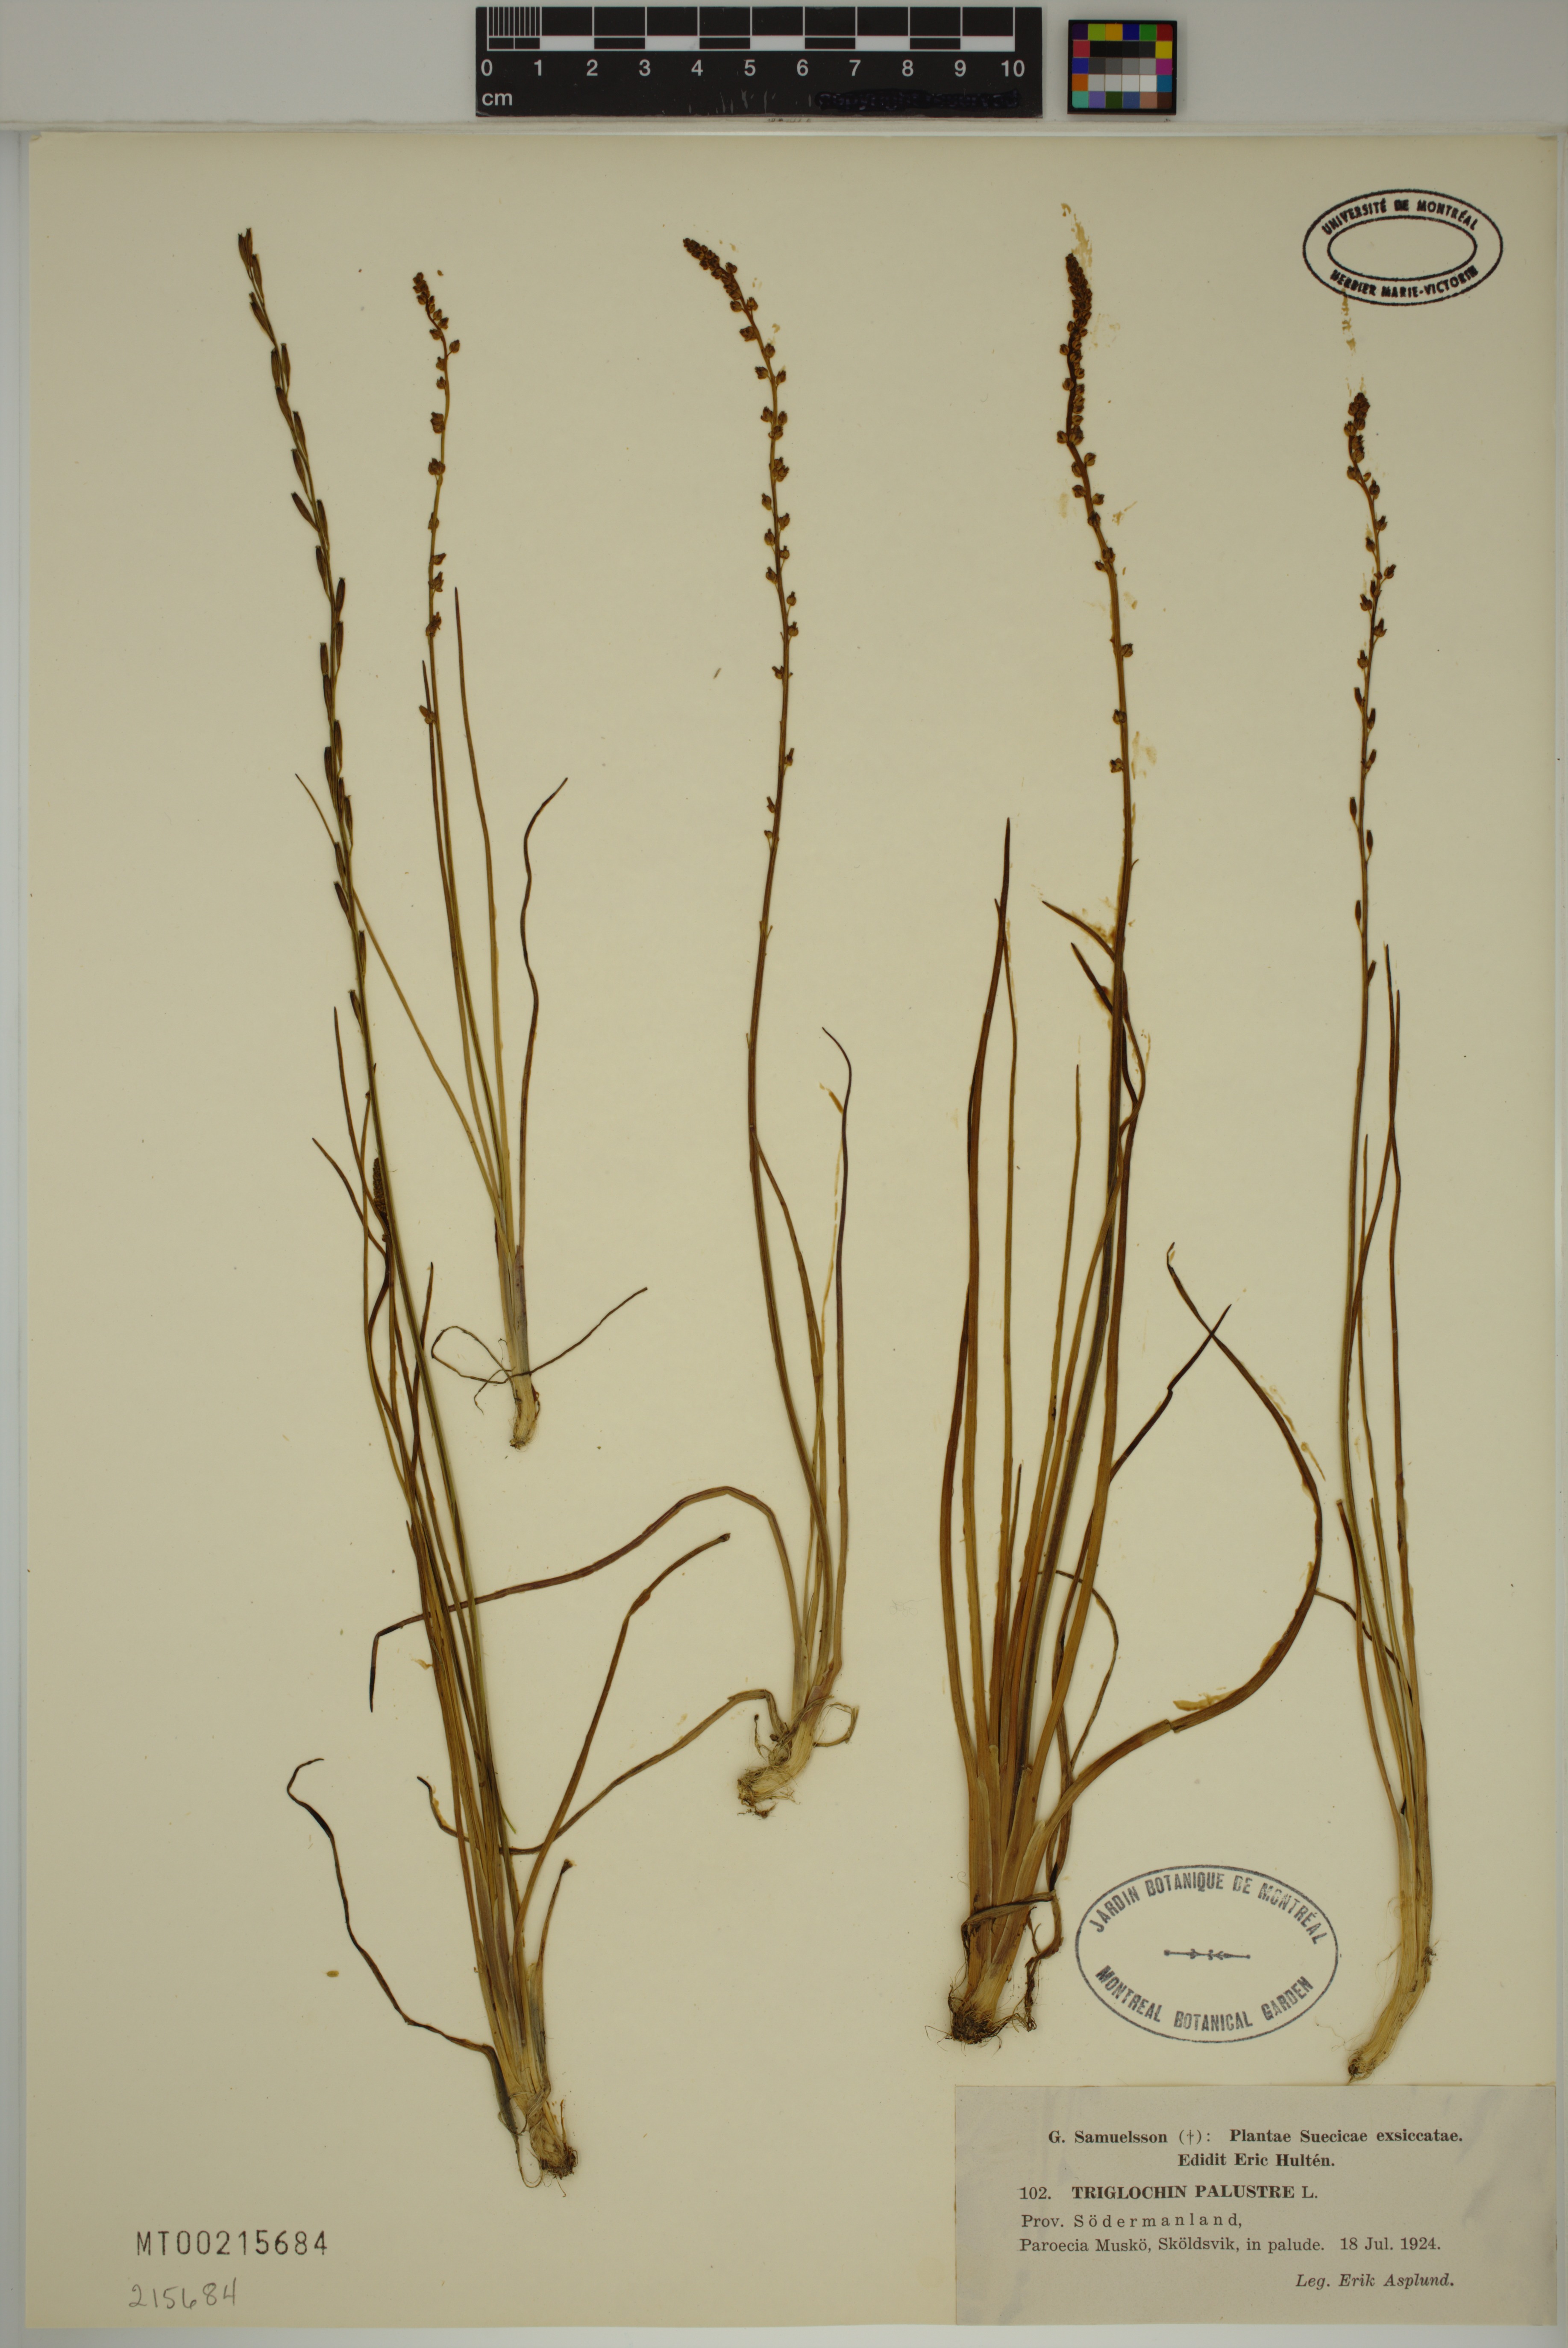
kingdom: Plantae
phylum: Tracheophyta
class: Liliopsida
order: Alismatales
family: Juncaginaceae
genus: Triglochin
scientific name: Triglochin palustris
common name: Marsh arrowgrass
